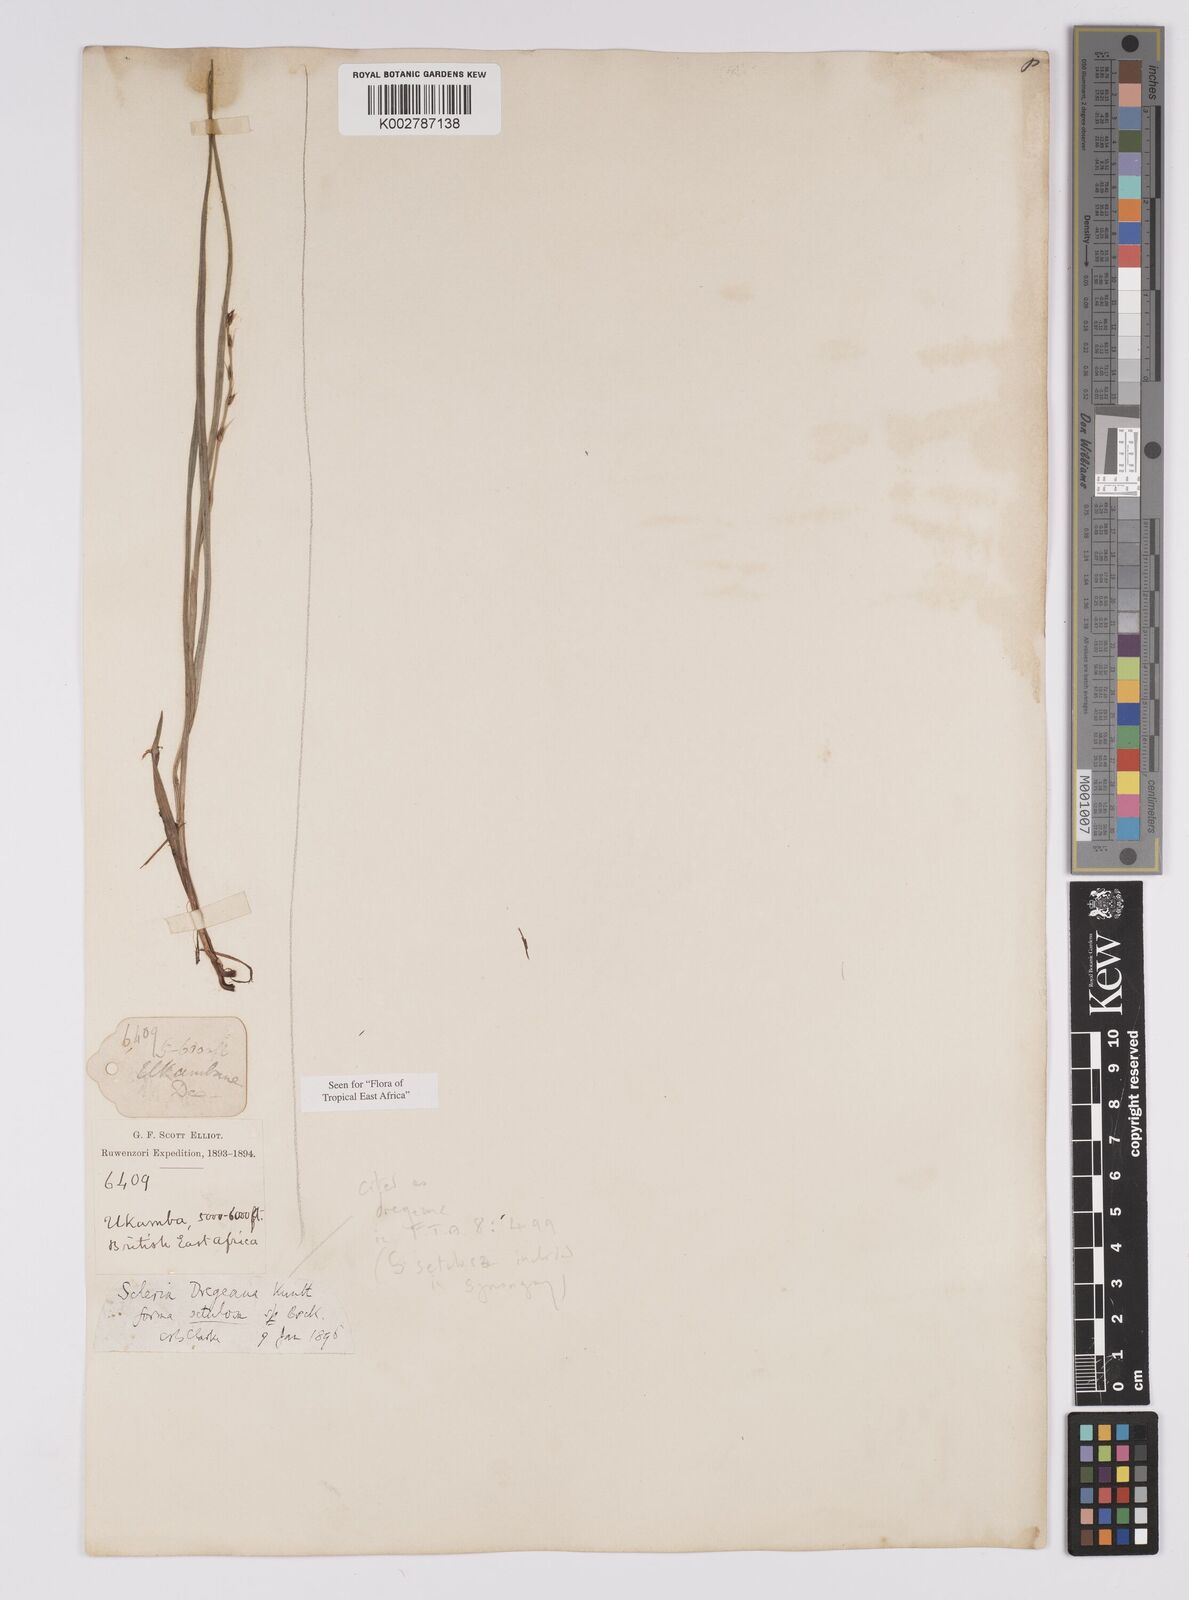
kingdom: Plantae
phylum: Tracheophyta
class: Liliopsida
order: Poales
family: Cyperaceae
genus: Scleria
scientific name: Scleria dregeana
